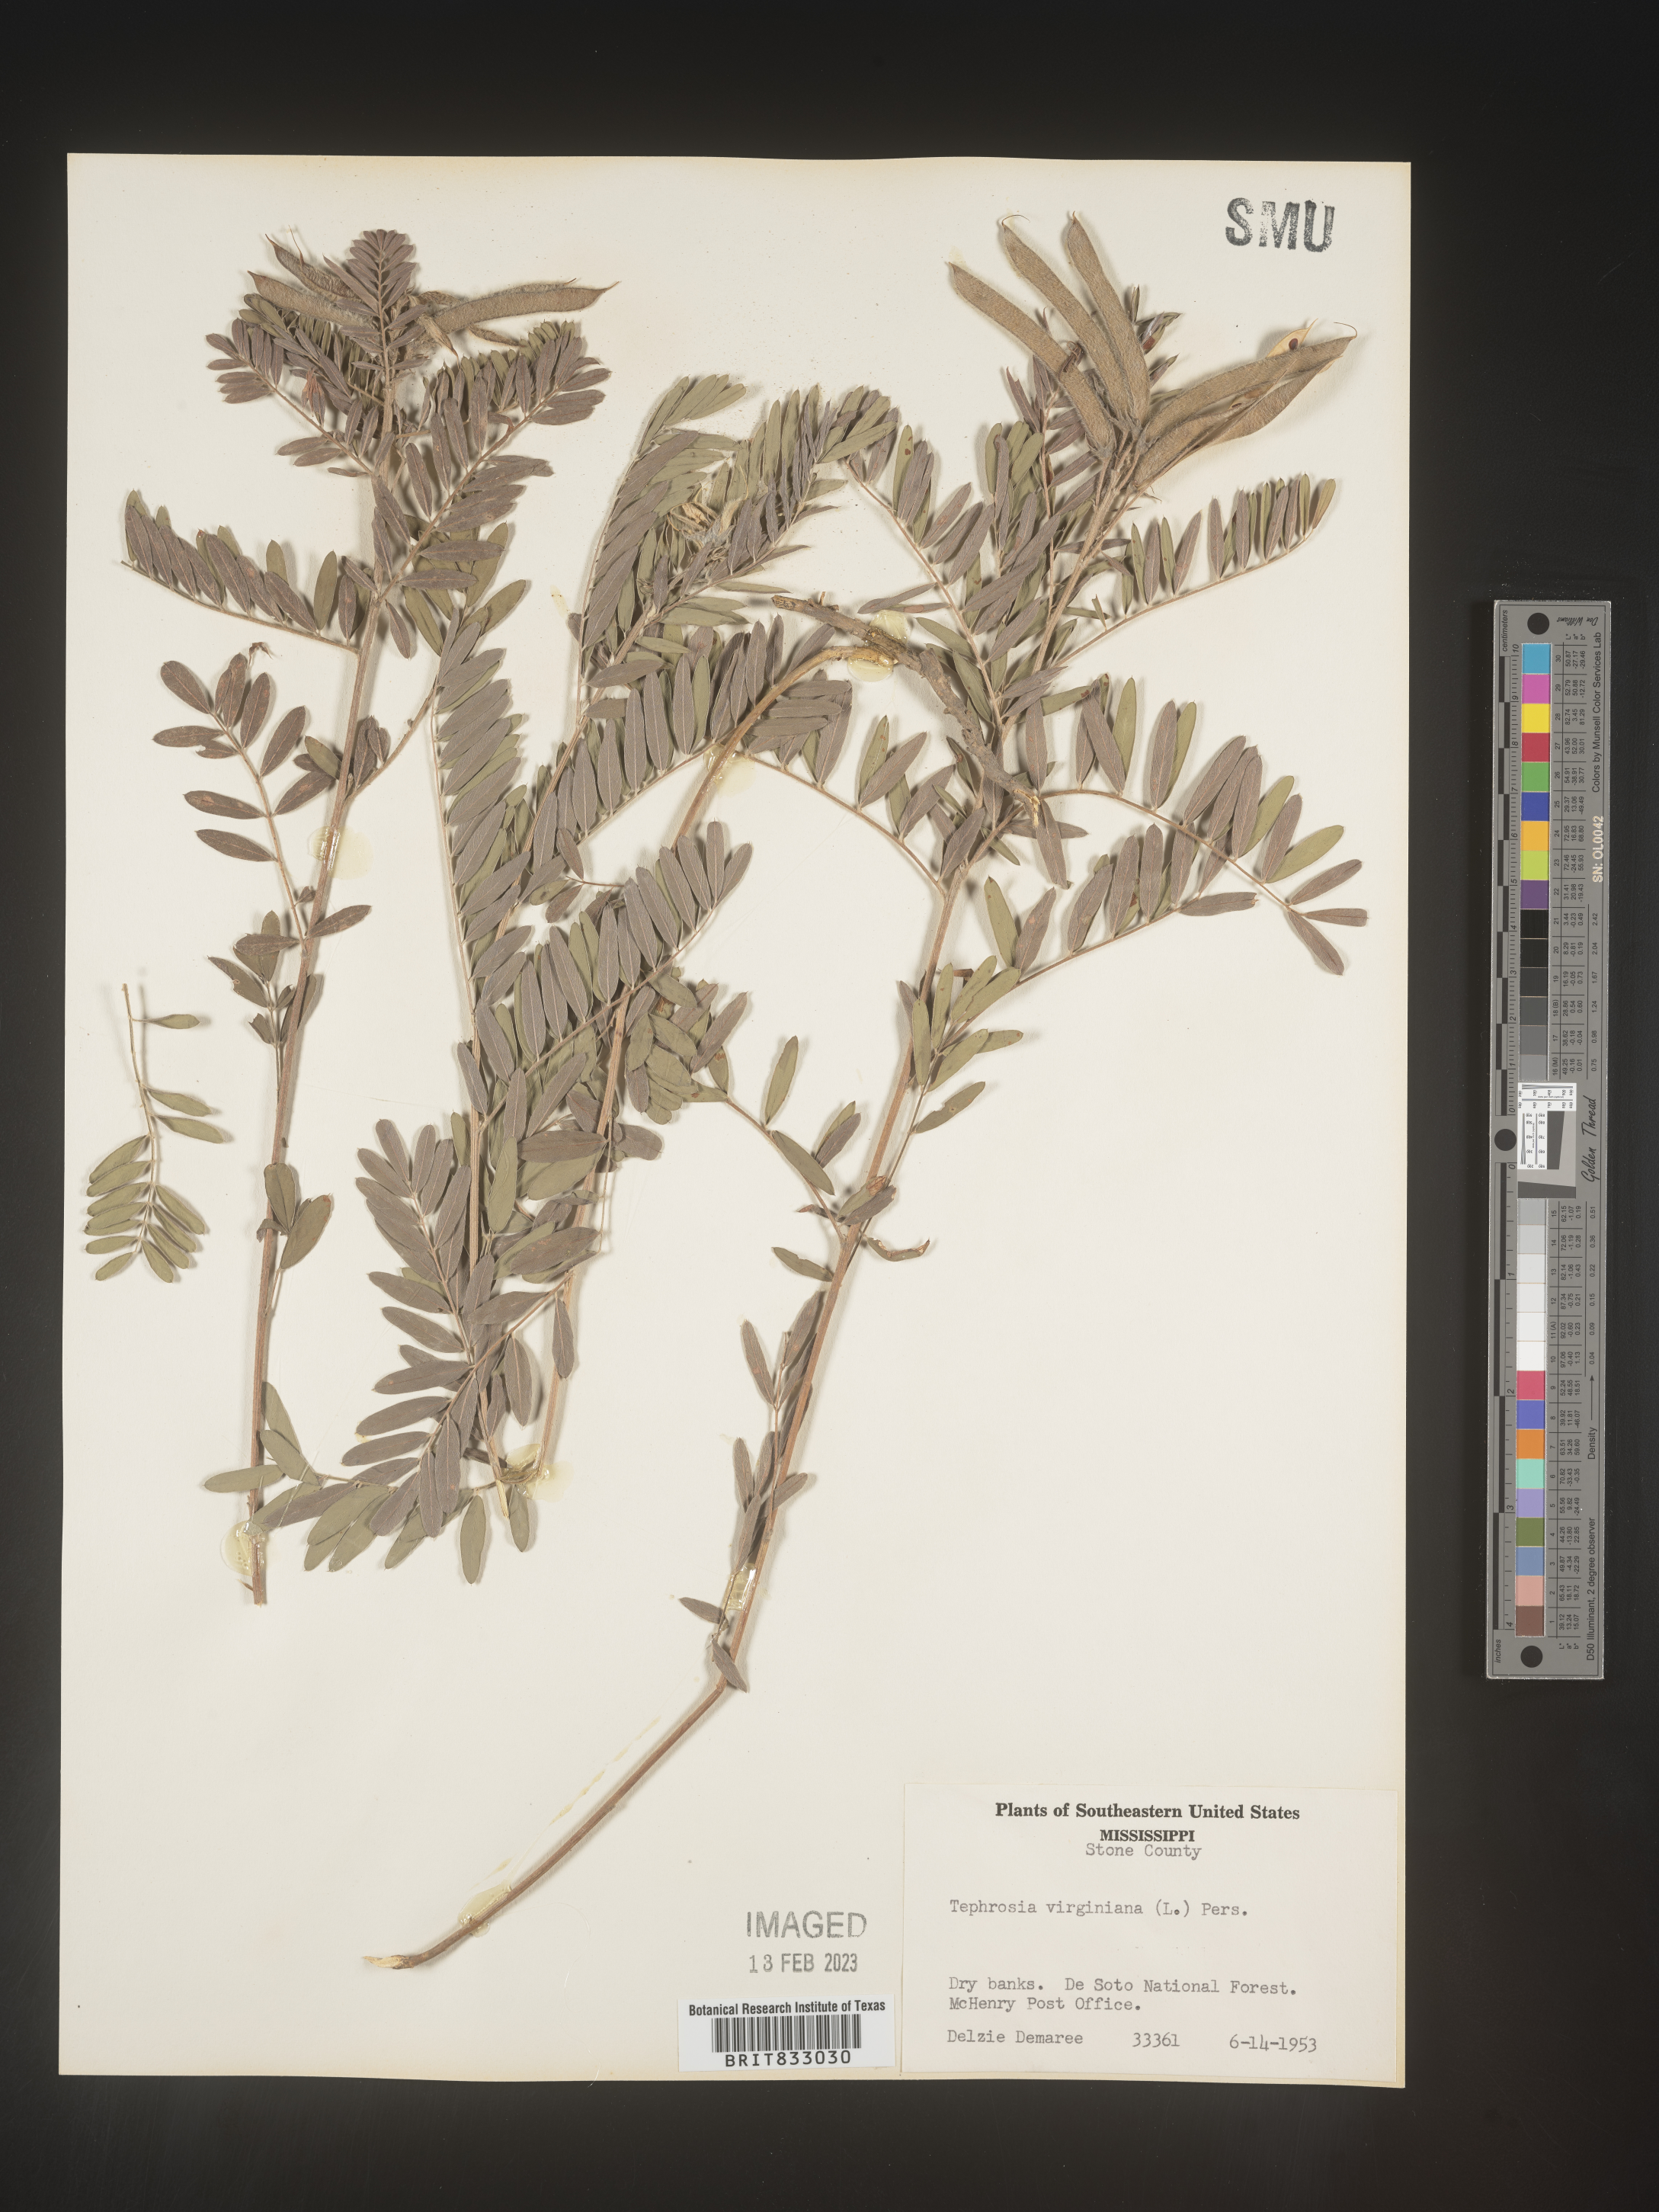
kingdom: Plantae
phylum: Tracheophyta
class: Magnoliopsida
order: Fabales
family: Fabaceae
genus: Tephrosia
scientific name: Tephrosia virginiana
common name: Rabbit-pea
